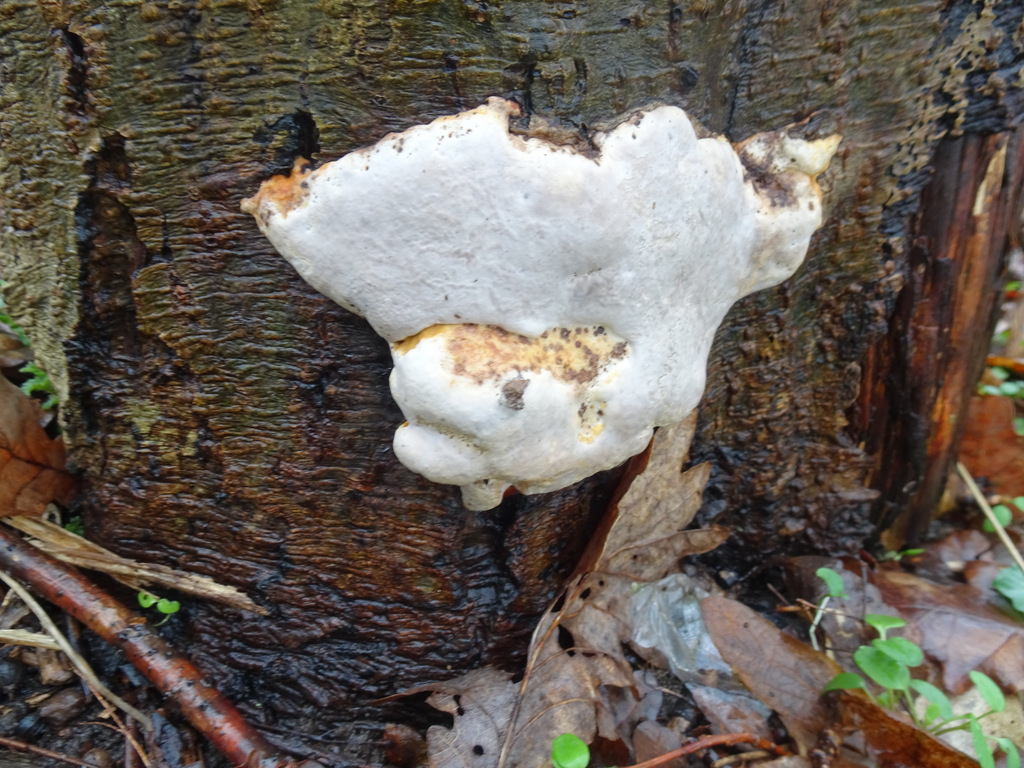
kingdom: Fungi
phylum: Basidiomycota
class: Agaricomycetes
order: Polyporales
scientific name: Polyporales
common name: poresvampordenen
